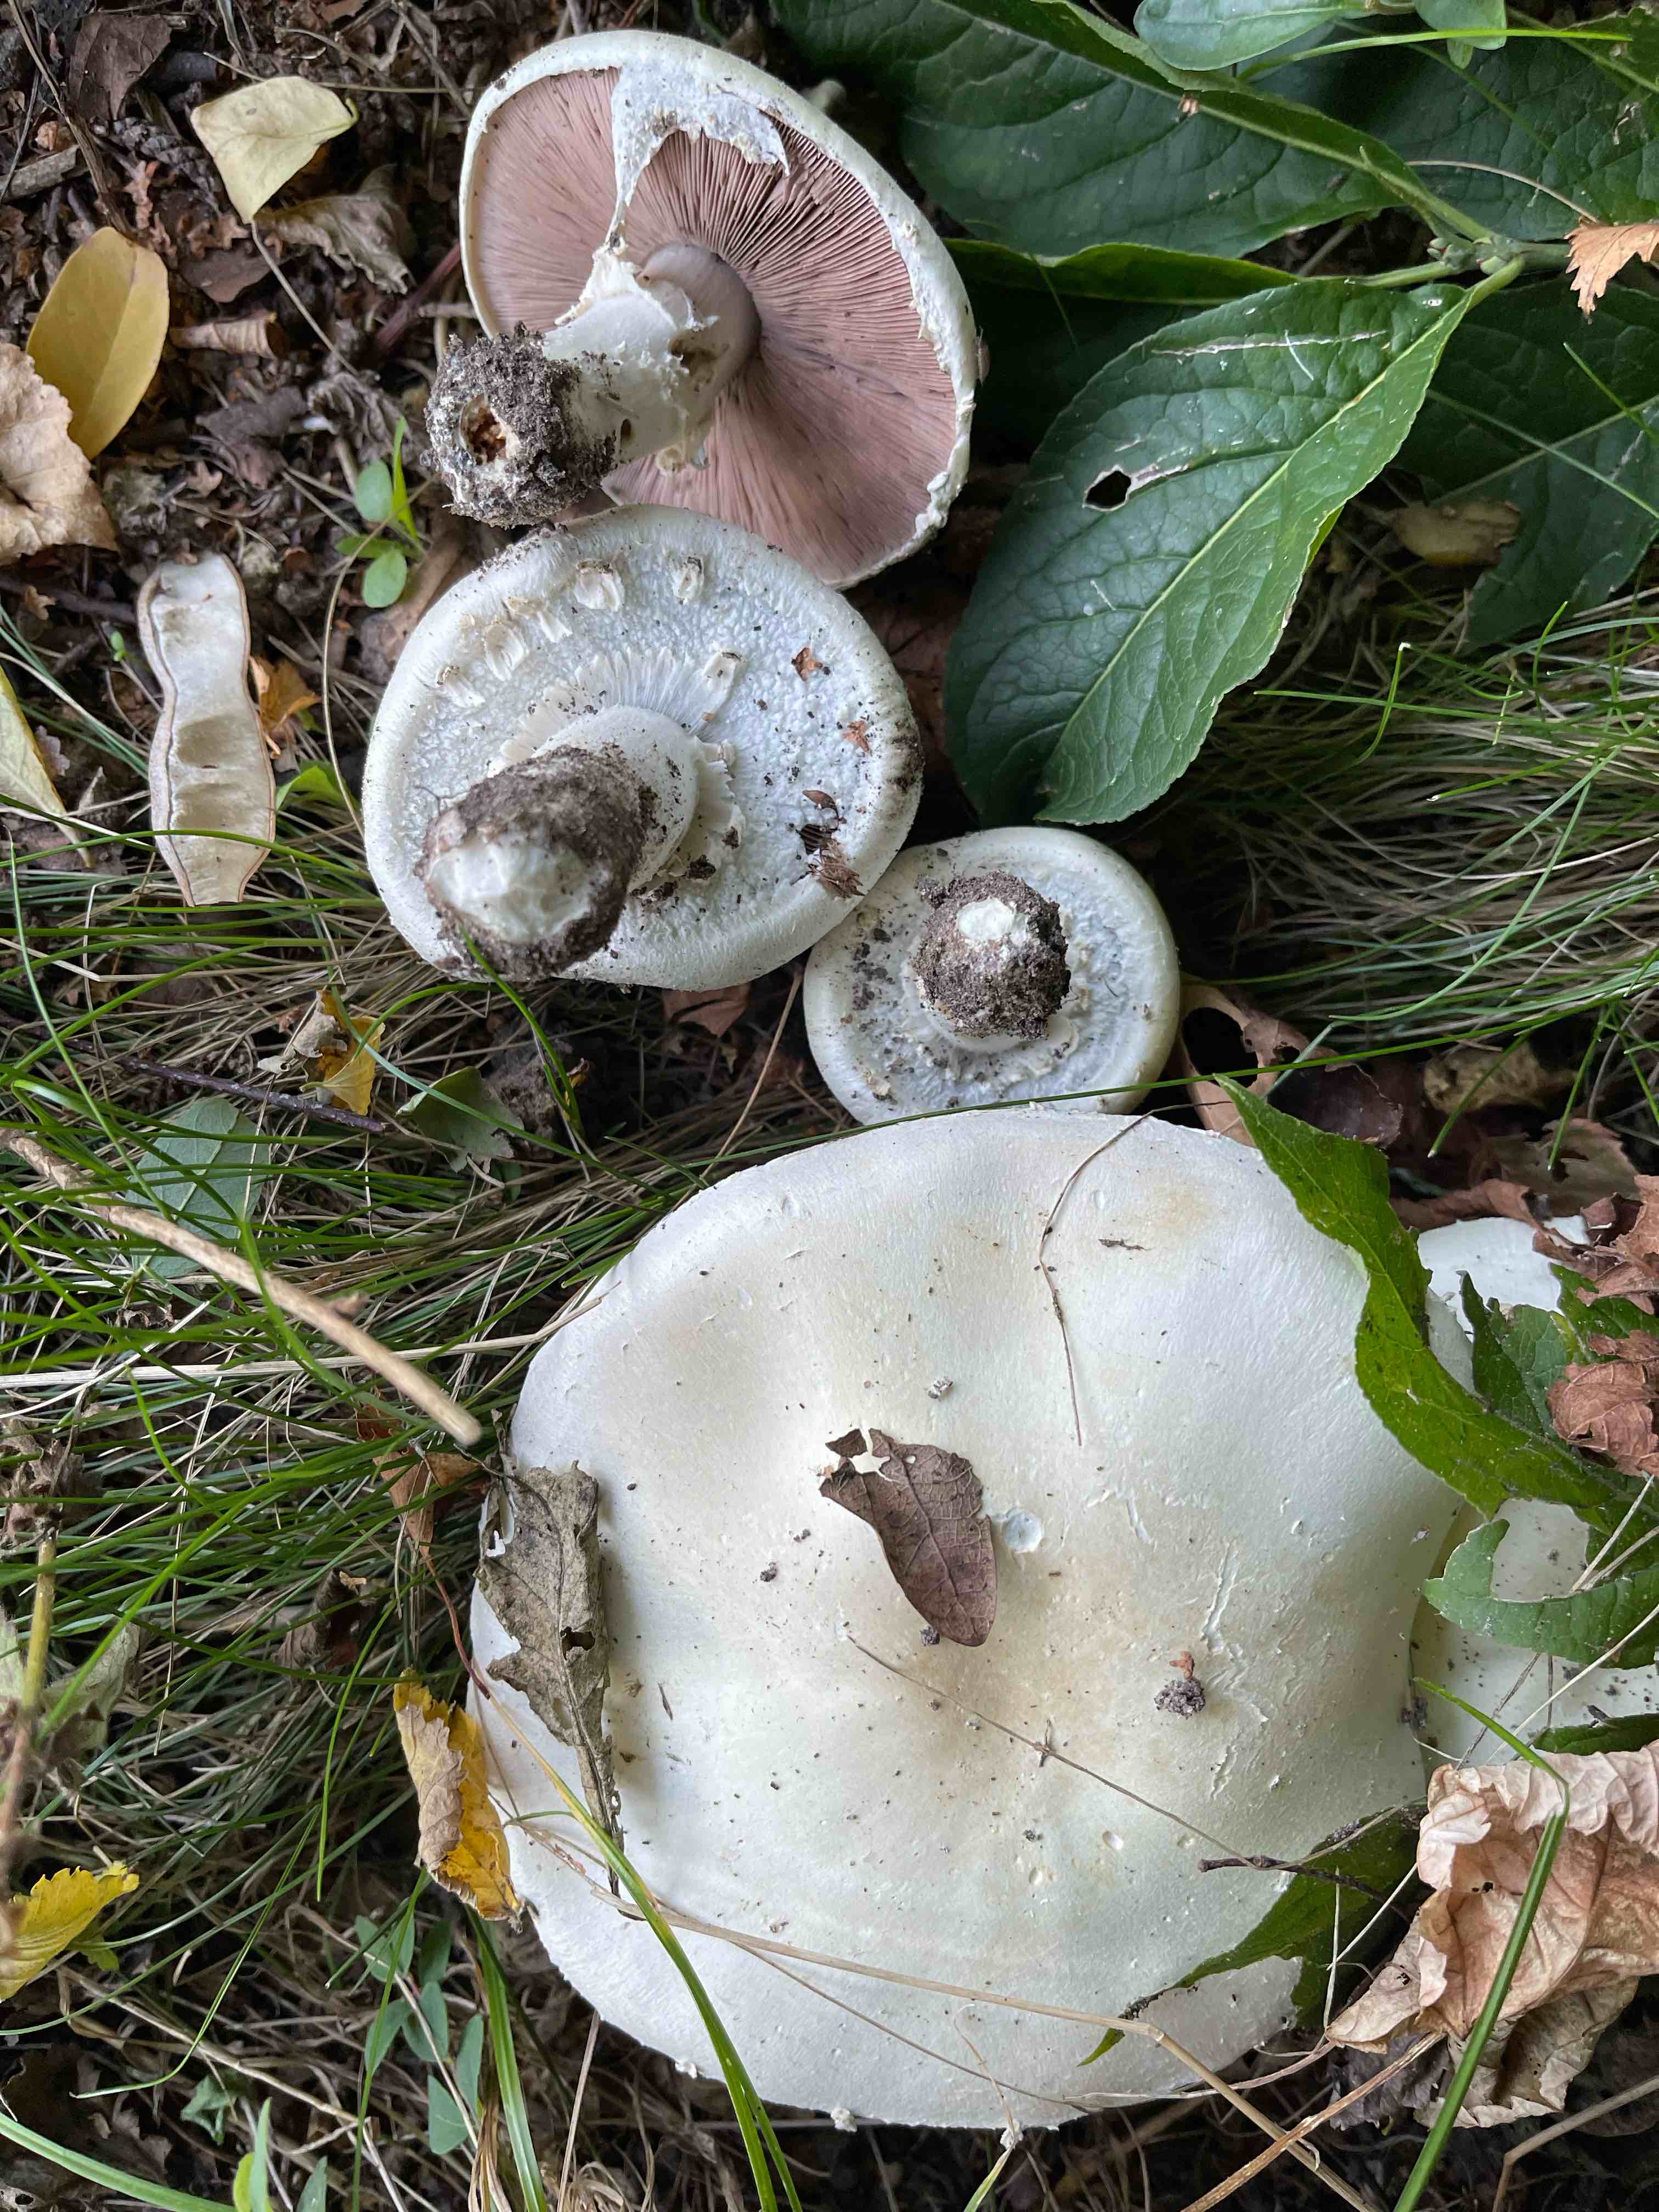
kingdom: Fungi
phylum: Basidiomycota
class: Agaricomycetes
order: Agaricales
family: Agaricaceae
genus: Agaricus
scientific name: Agaricus xanthodermus
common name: karbol-champignon
